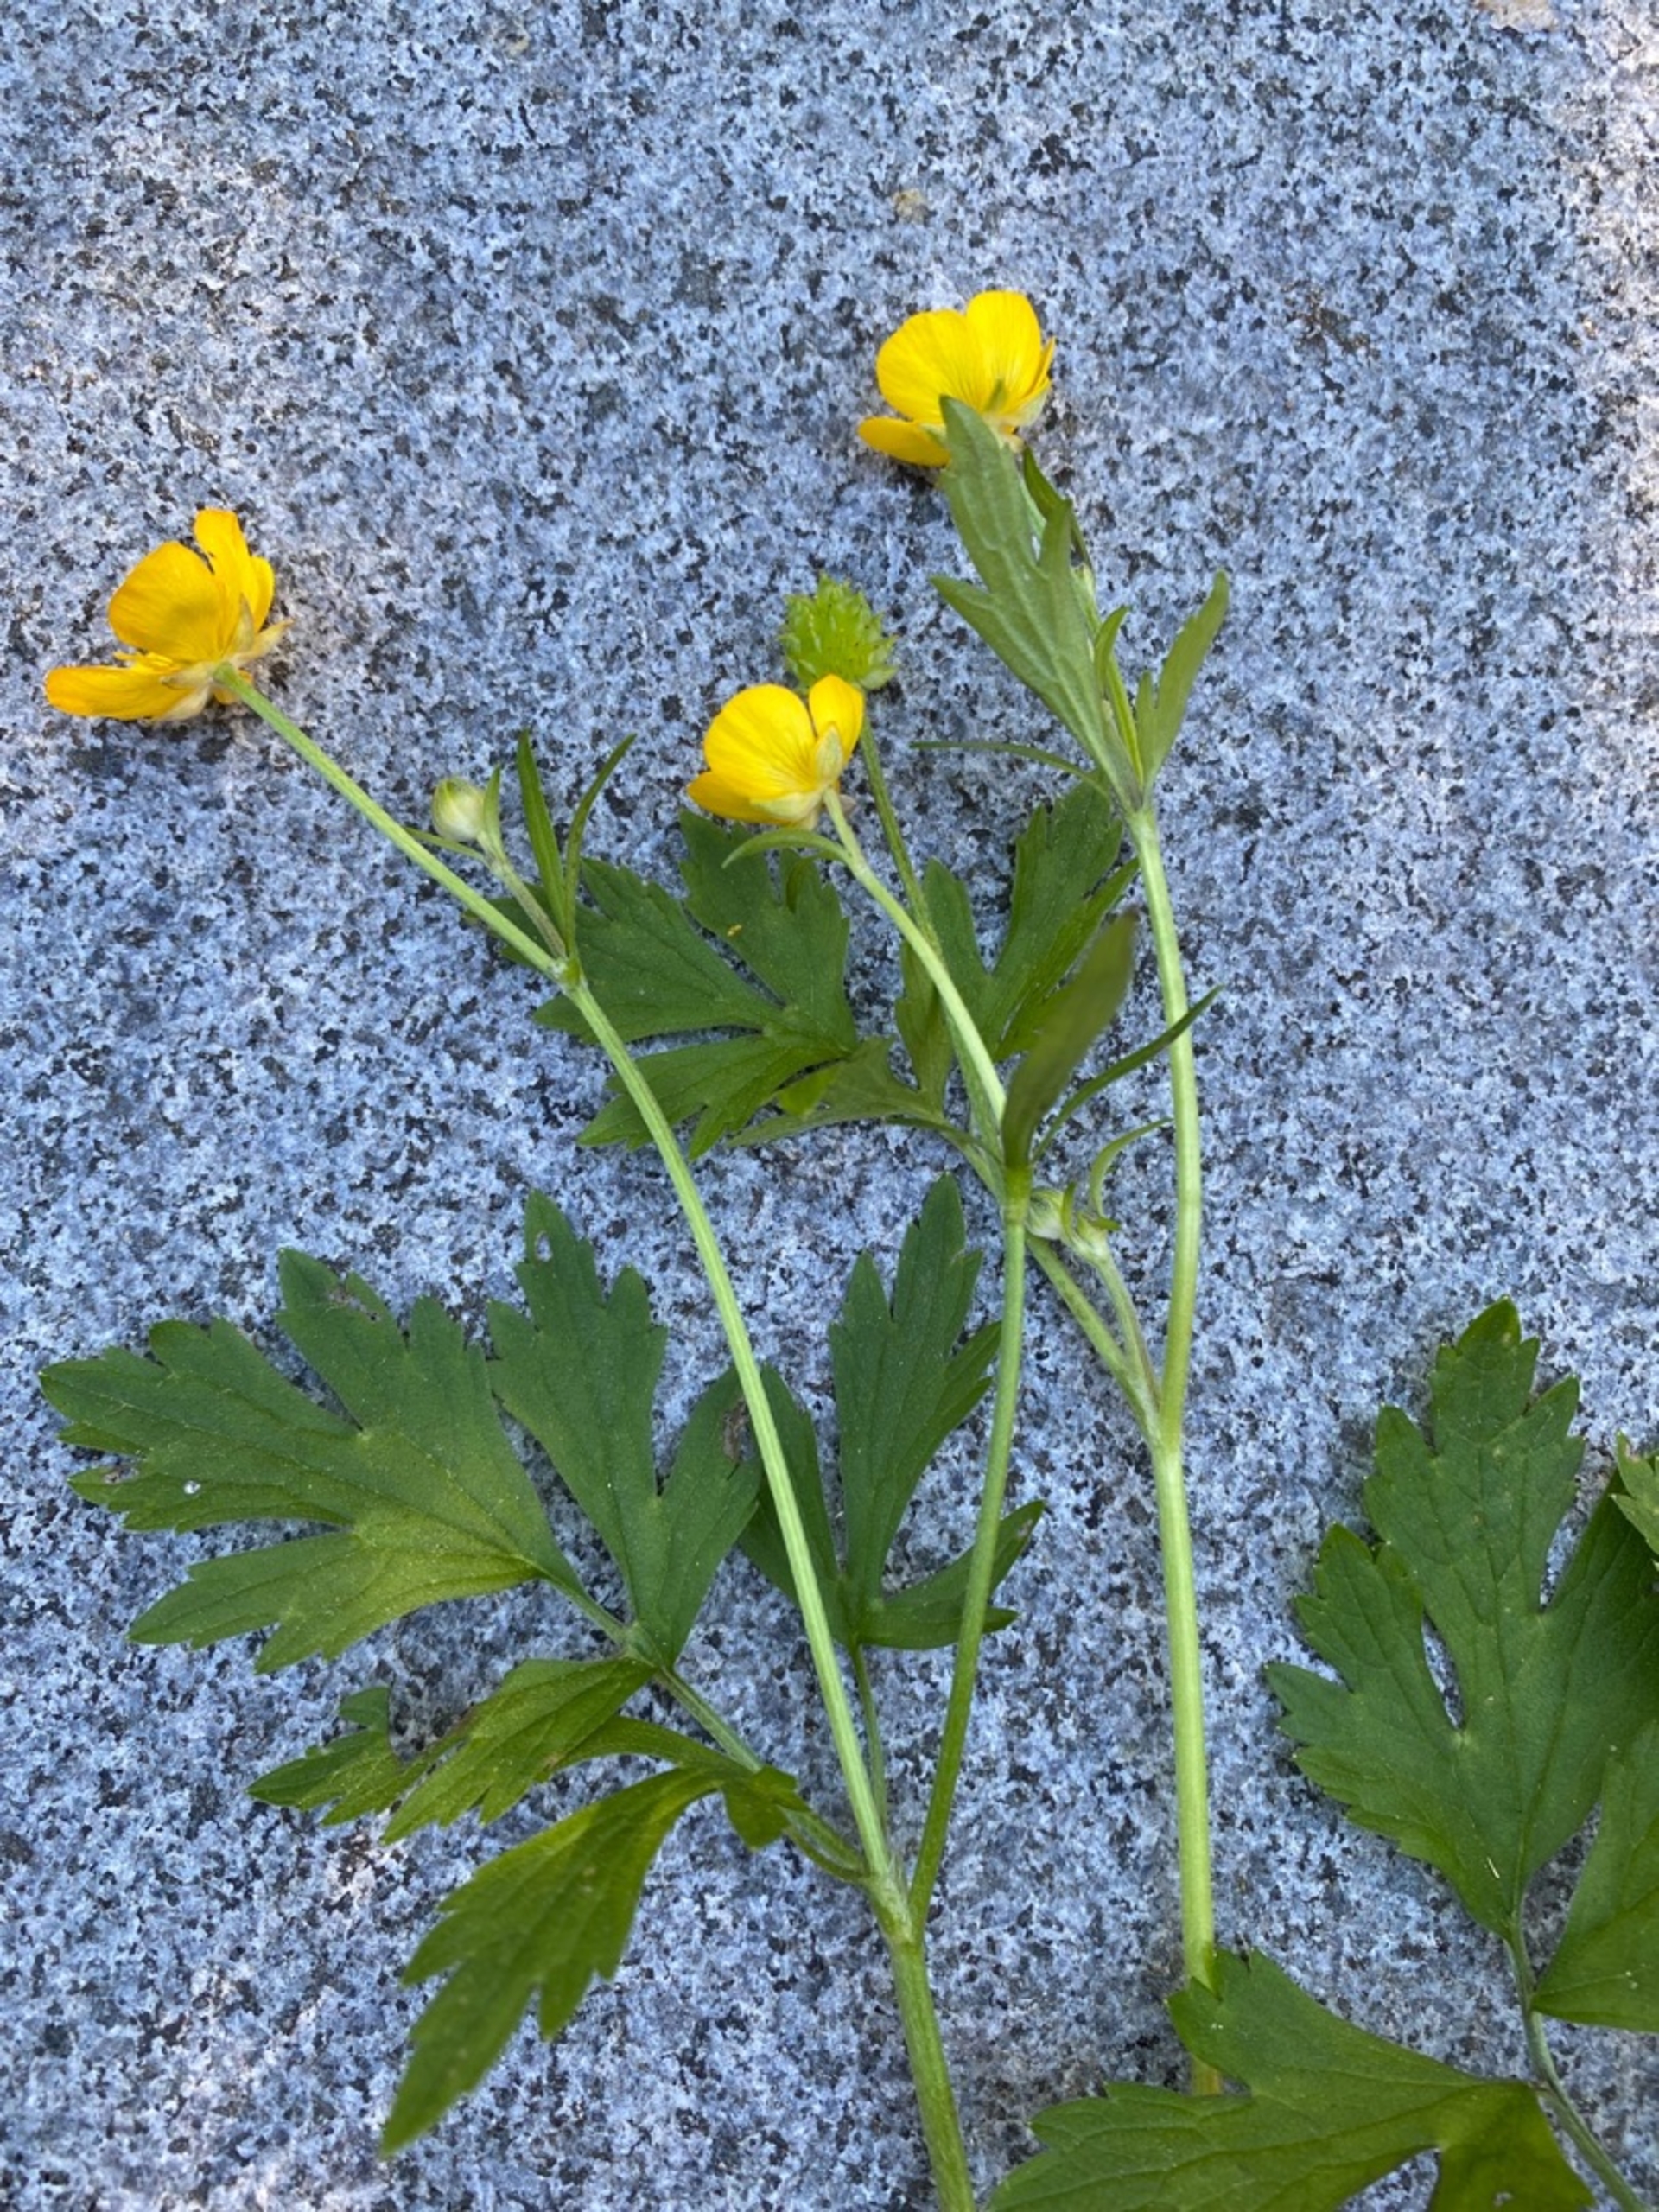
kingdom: Plantae
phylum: Tracheophyta
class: Magnoliopsida
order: Ranunculales
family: Ranunculaceae
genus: Ranunculus
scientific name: Ranunculus repens
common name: Lav ranunkel
